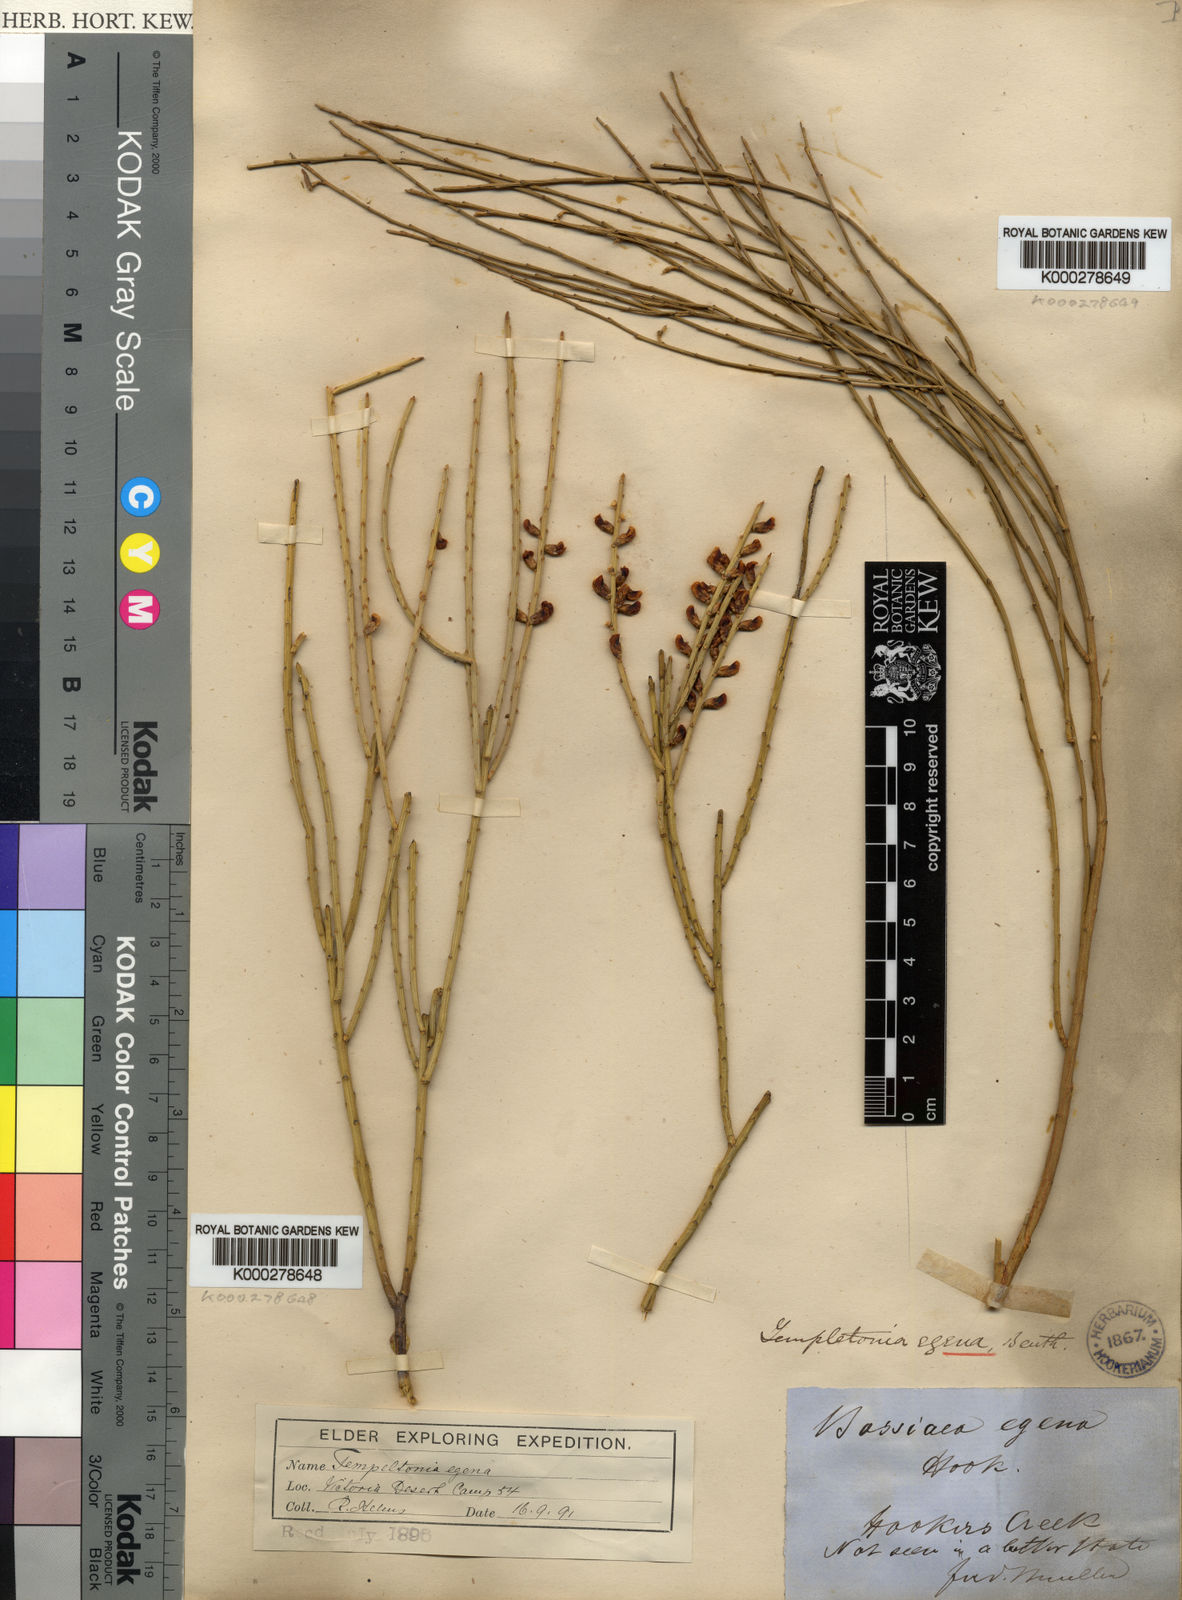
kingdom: Plantae
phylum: Tracheophyta
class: Magnoliopsida
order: Fabales
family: Fabaceae
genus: Templetonia
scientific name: Templetonia egena
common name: Desert broombush
